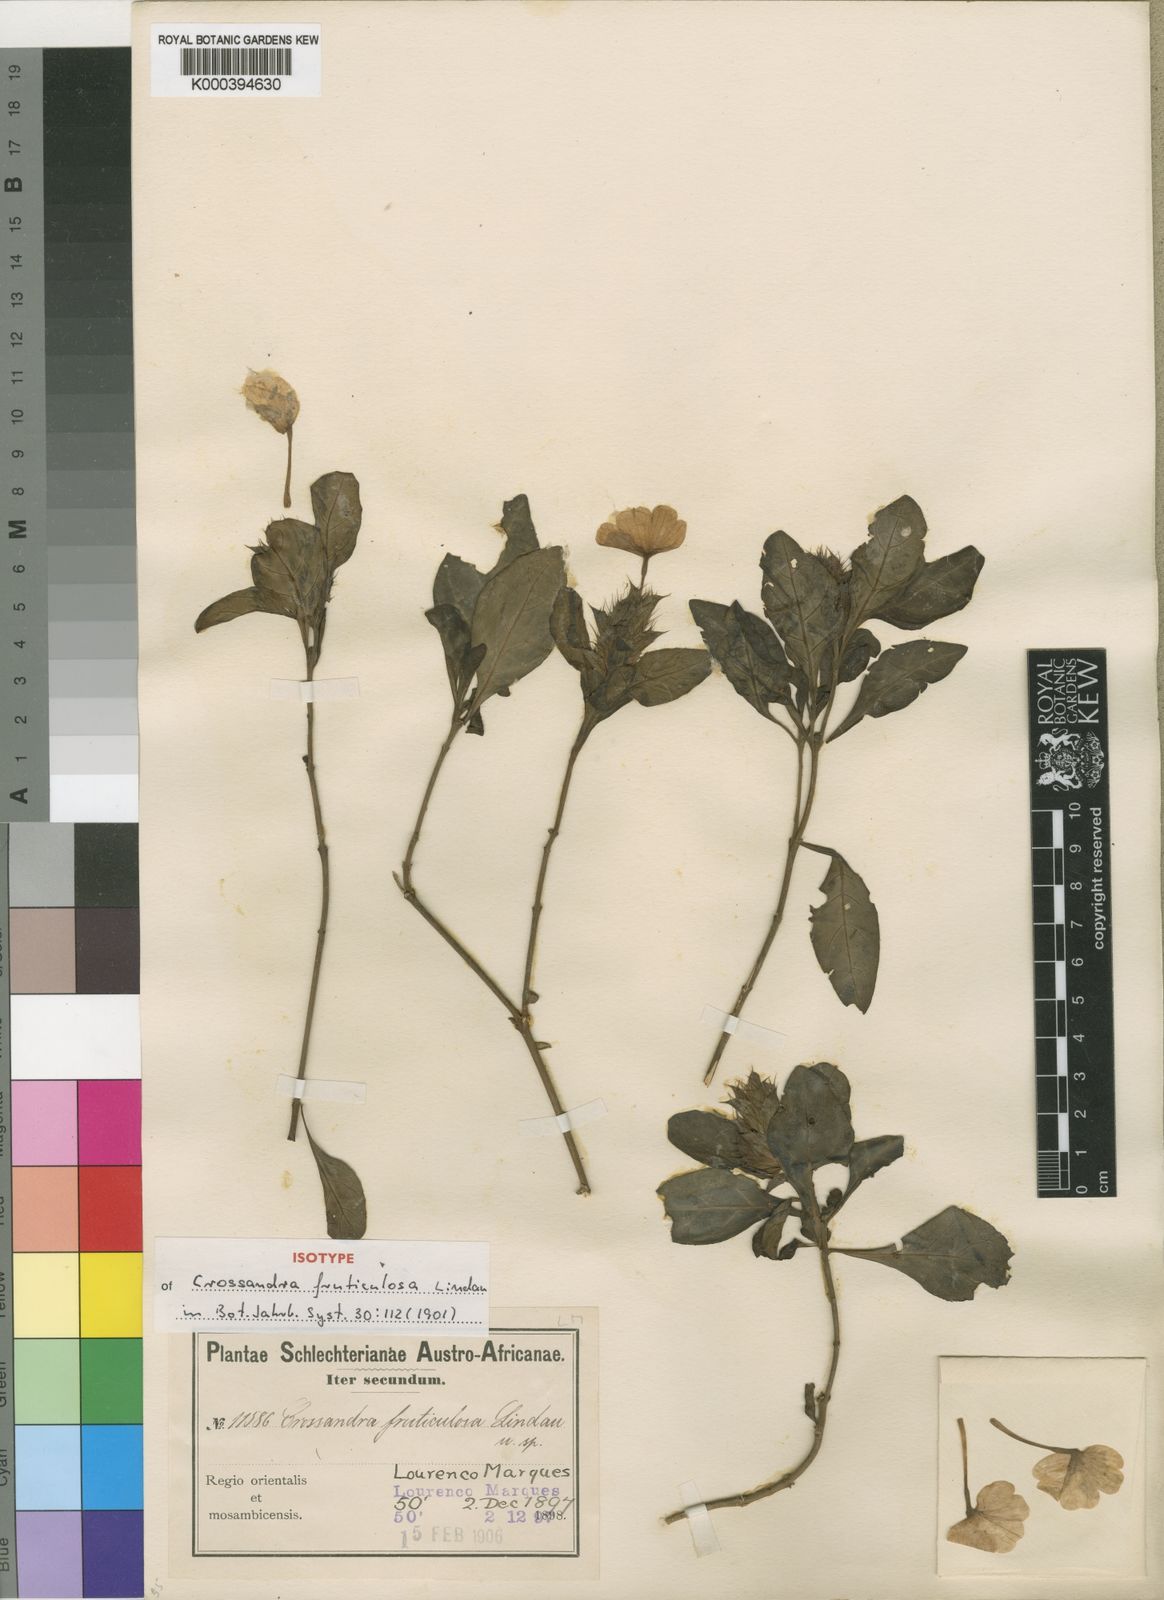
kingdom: Plantae
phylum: Tracheophyta
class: Magnoliopsida
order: Lamiales
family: Acanthaceae
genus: Crossandra
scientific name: Crossandra fruticulosa
